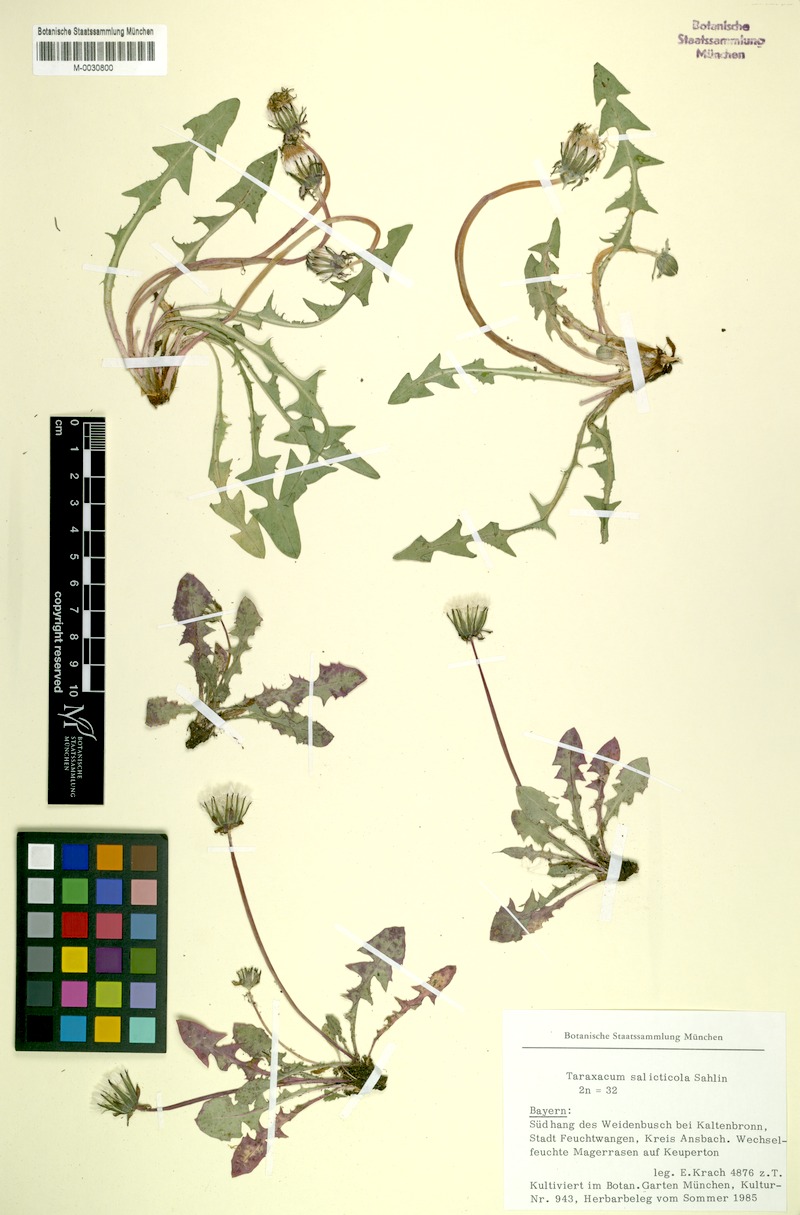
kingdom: Plantae
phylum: Tracheophyta
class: Magnoliopsida
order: Asterales
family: Asteraceae
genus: Taraxacum
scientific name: Taraxacum
